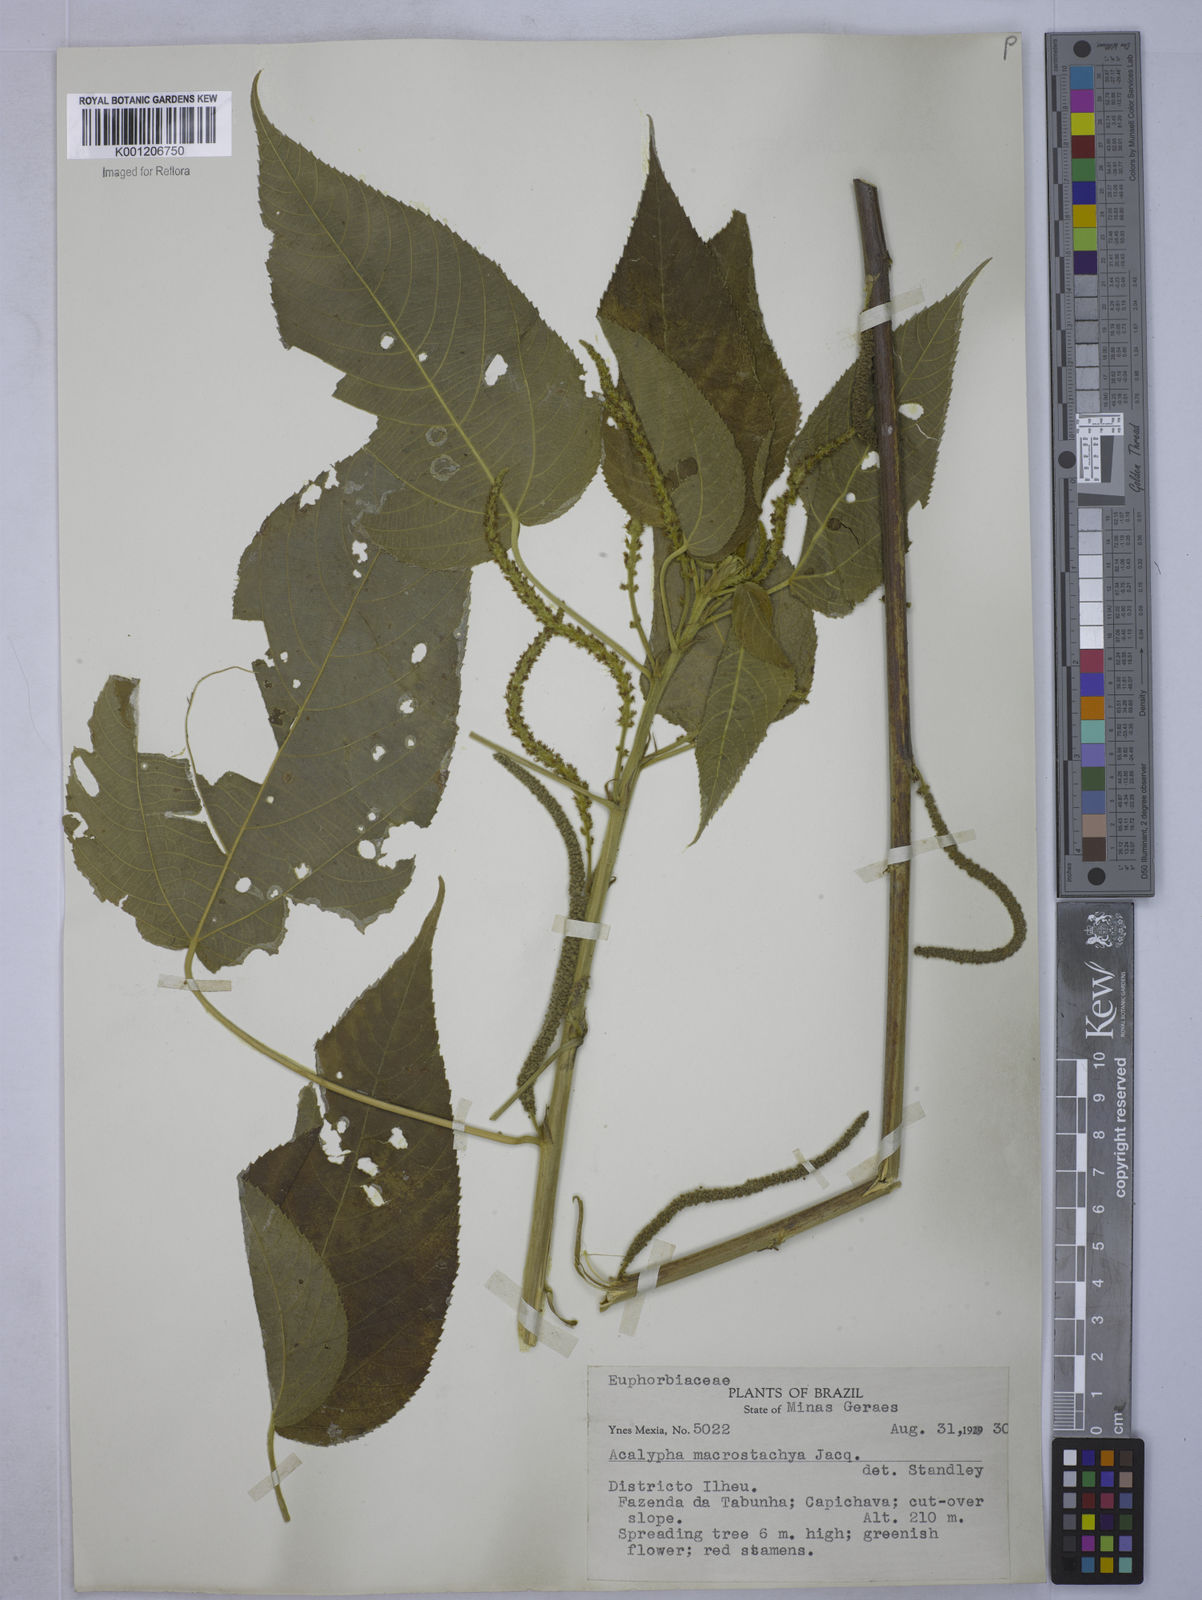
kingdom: Plantae
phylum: Tracheophyta
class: Magnoliopsida
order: Malpighiales
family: Euphorbiaceae
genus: Acalypha
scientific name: Acalypha macrostachya
